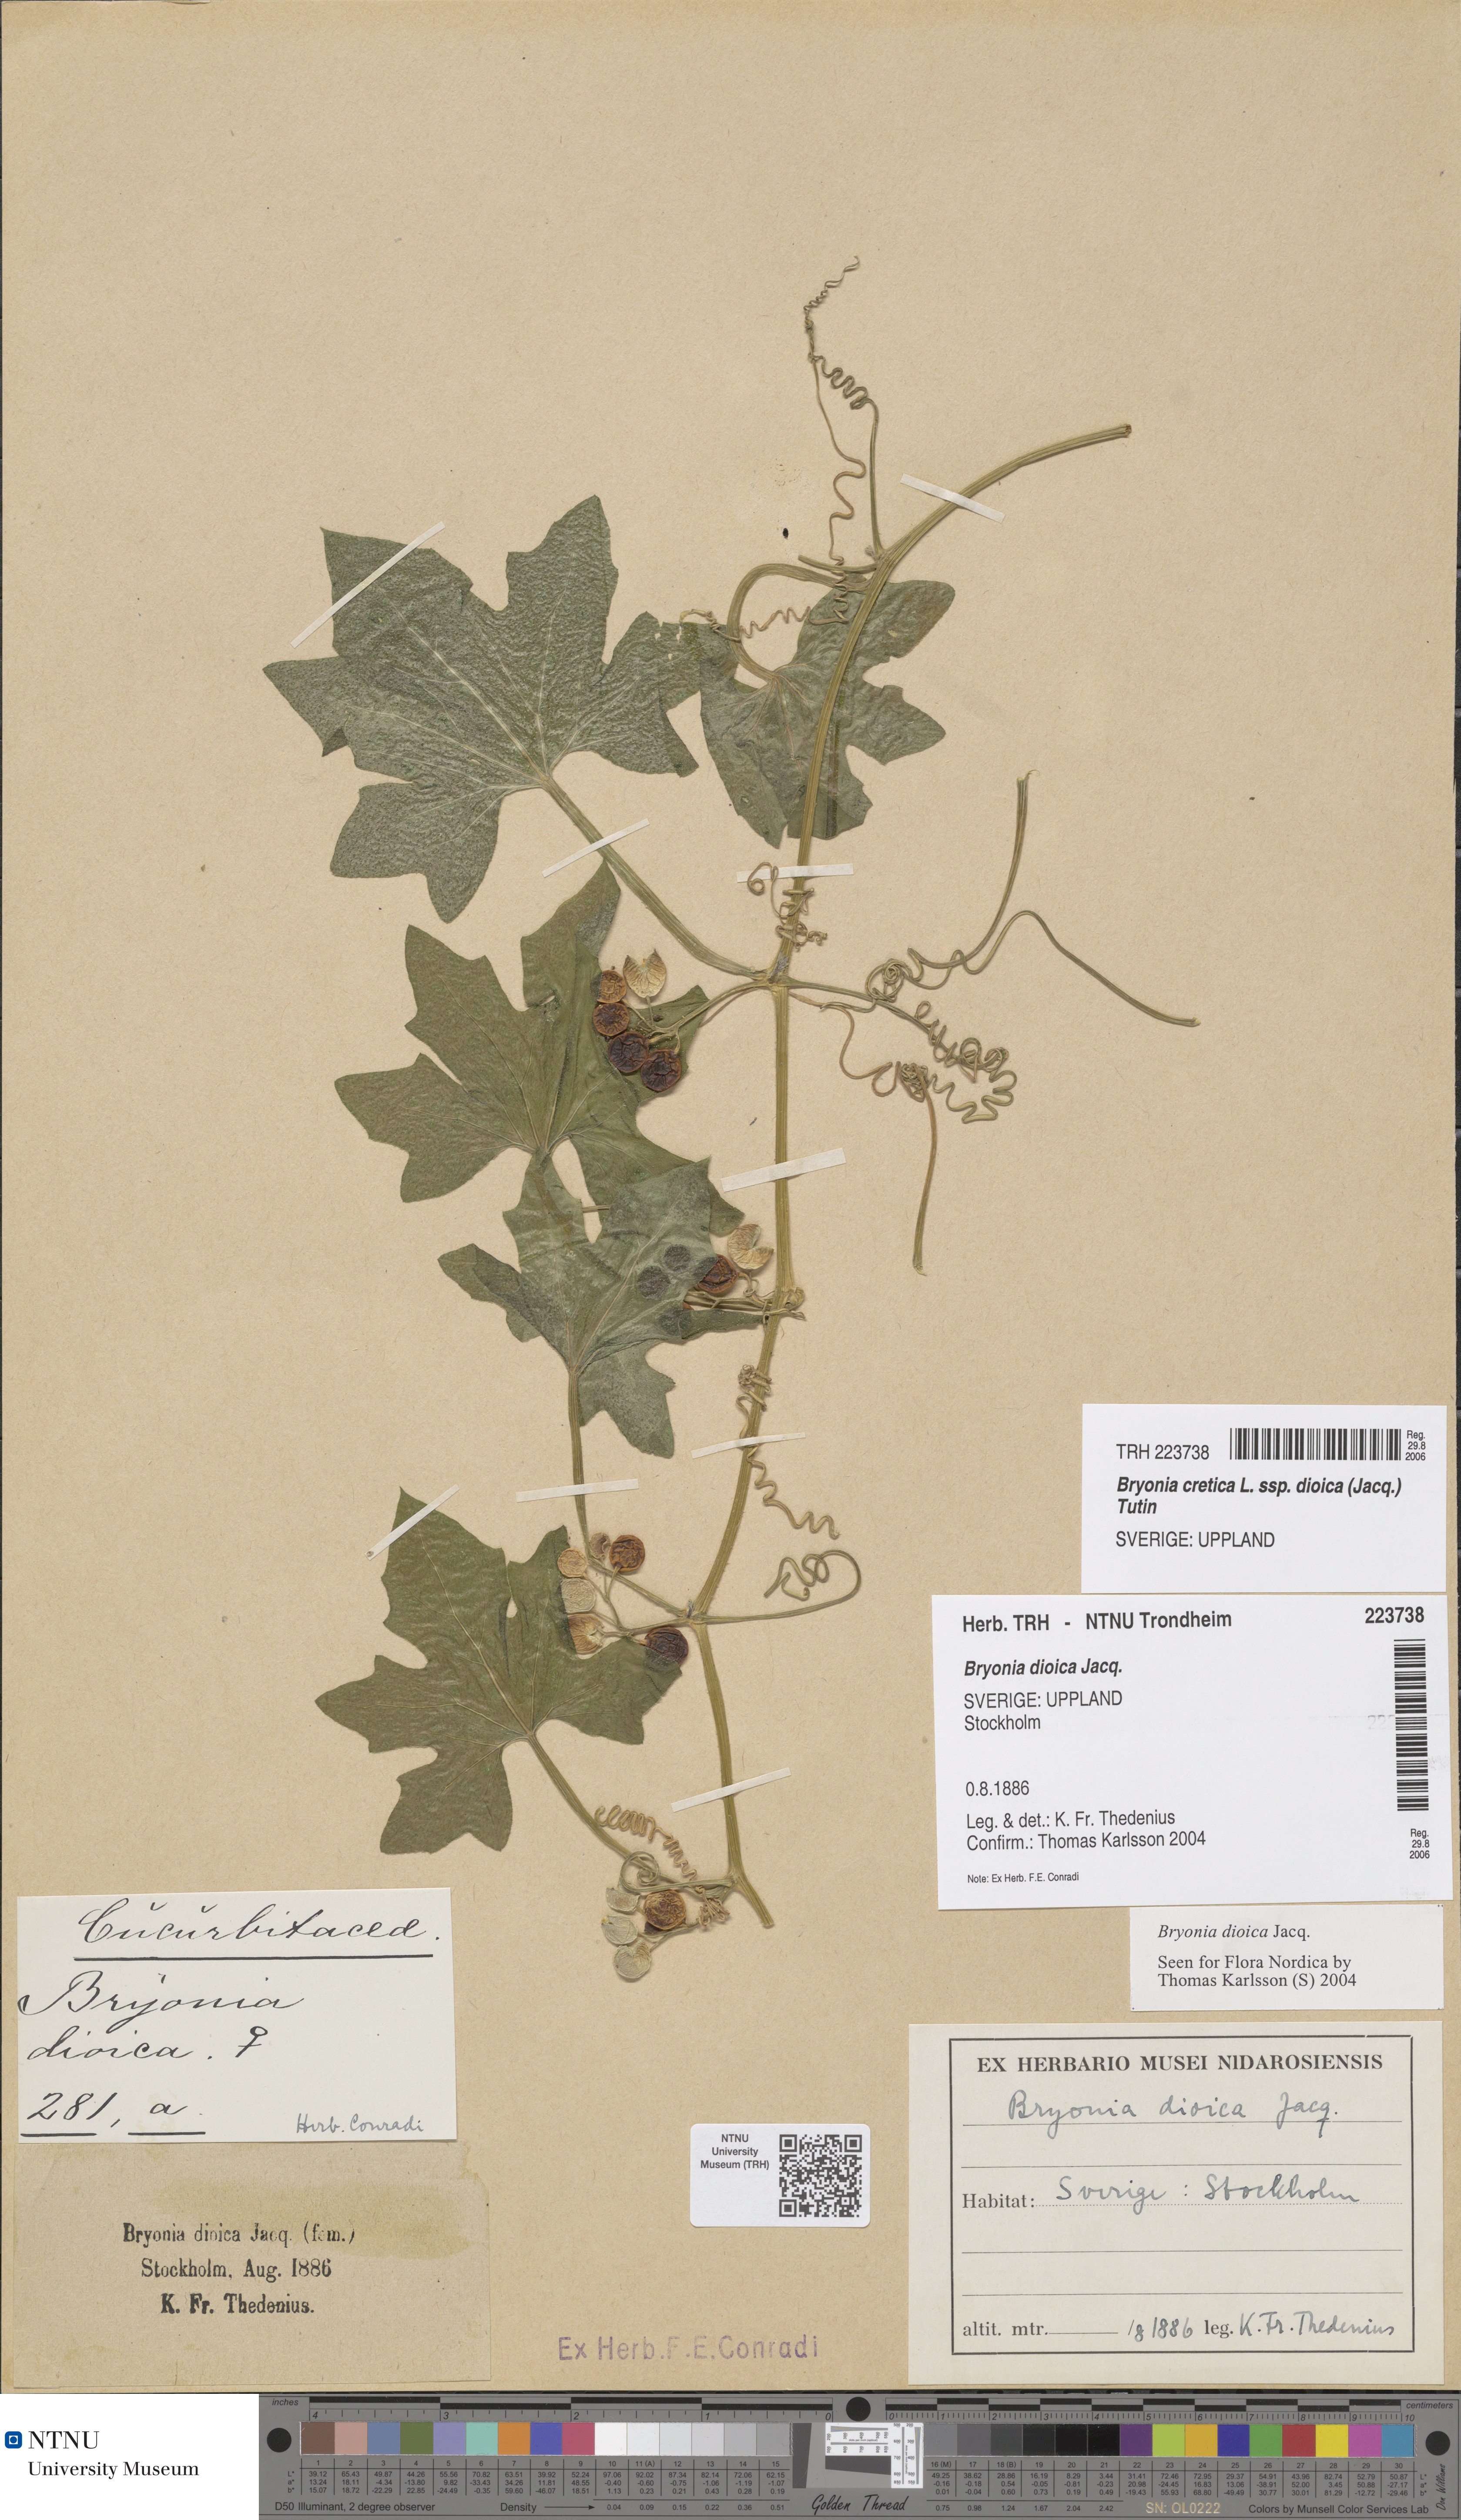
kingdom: Plantae
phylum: Tracheophyta
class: Magnoliopsida
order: Cucurbitales
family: Cucurbitaceae
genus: Bryonia
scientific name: Bryonia dioica
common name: White bryony
